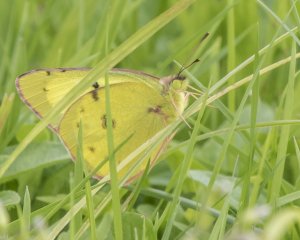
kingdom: Animalia
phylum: Arthropoda
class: Insecta
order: Lepidoptera
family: Pieridae
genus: Colias
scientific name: Colias philodice
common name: Clouded Sulphur
